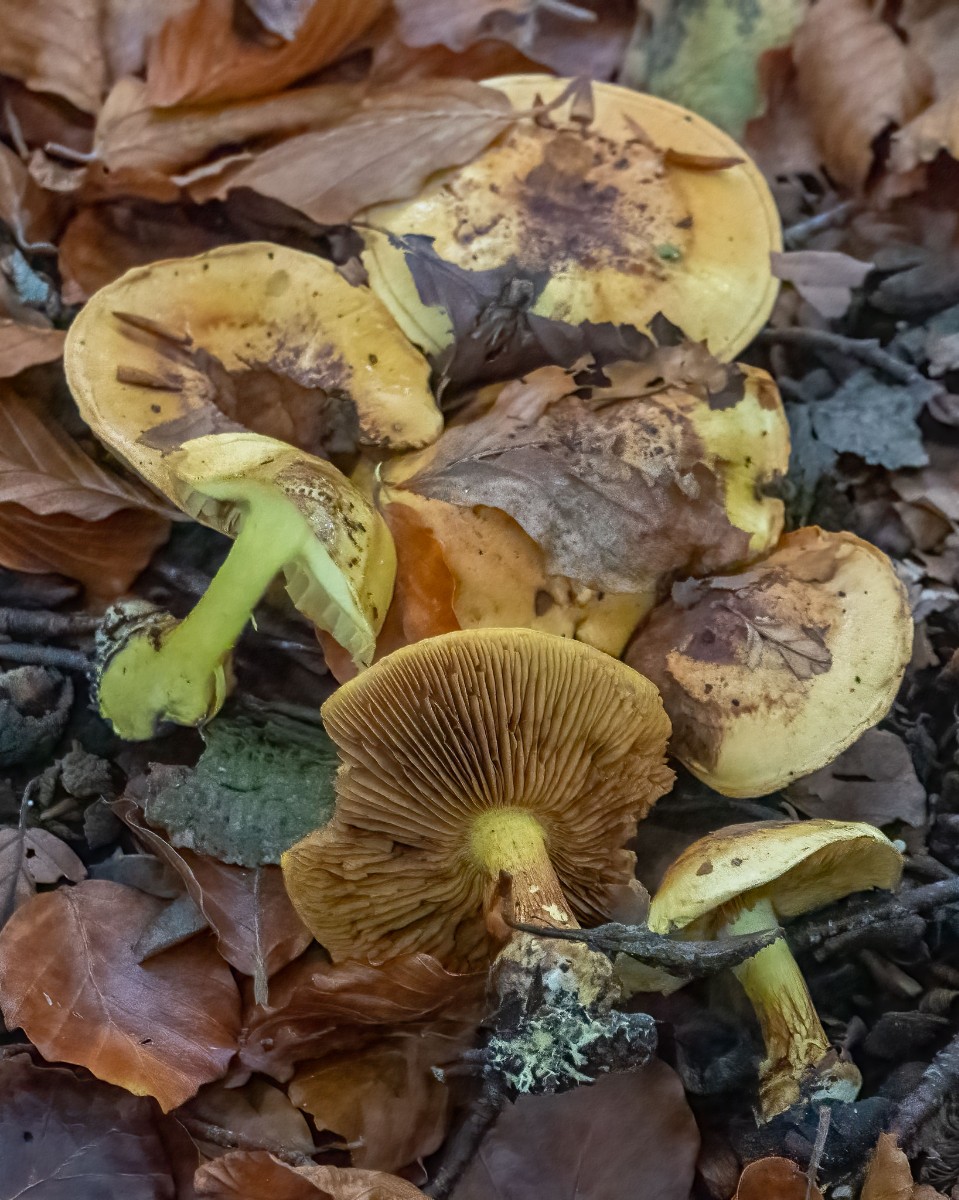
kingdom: Fungi
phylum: Basidiomycota
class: Agaricomycetes
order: Agaricales
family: Cortinariaceae
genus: Calonarius
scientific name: Calonarius splendens
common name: sirene-slørhat
